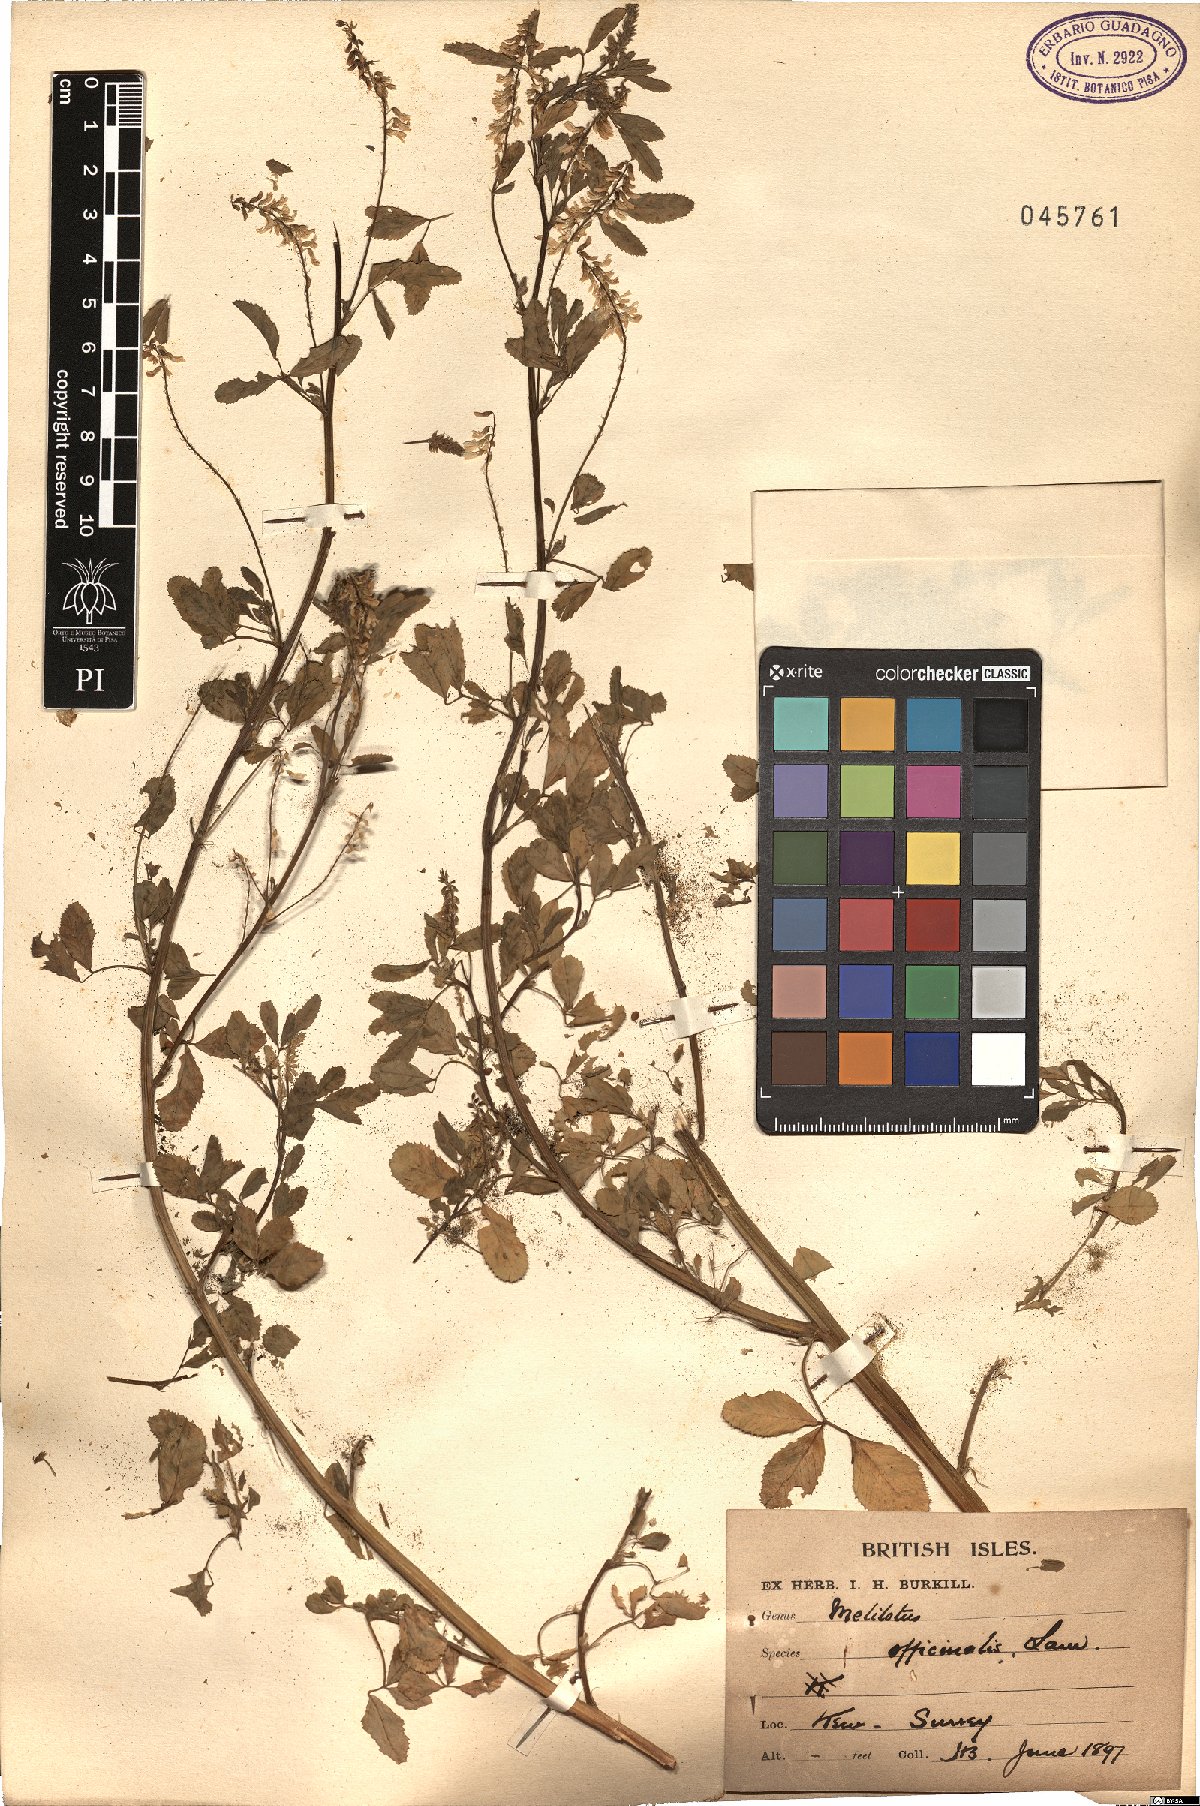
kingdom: Plantae
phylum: Tracheophyta
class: Magnoliopsida
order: Fabales
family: Fabaceae
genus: Melilotus
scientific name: Melilotus officinalis
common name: Sweetclover
